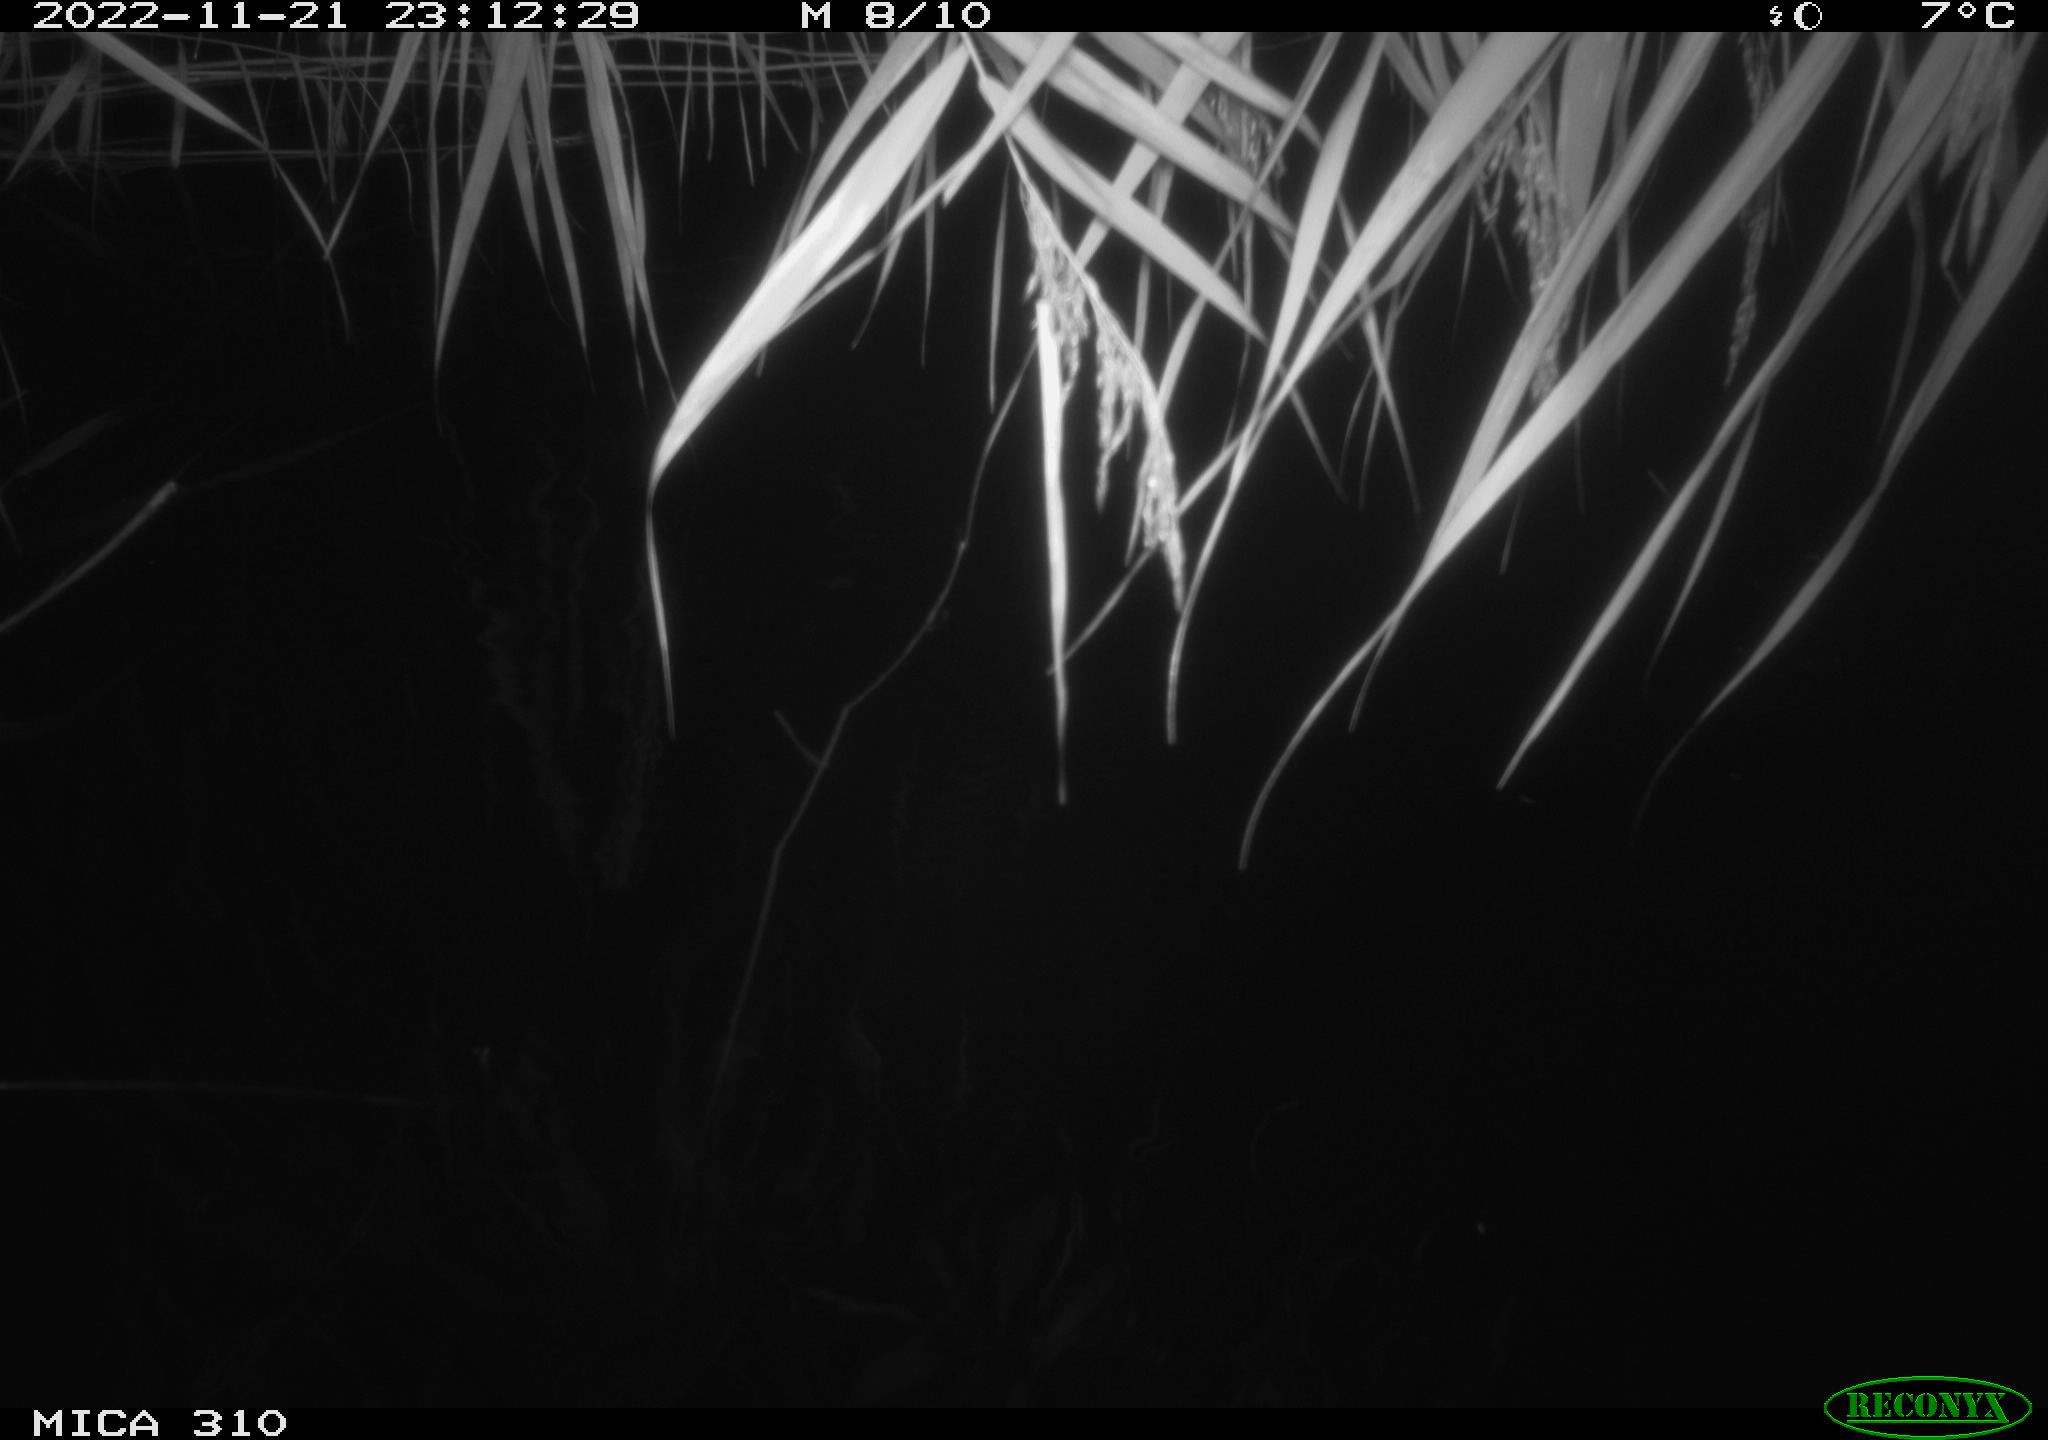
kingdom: Animalia
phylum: Chordata
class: Mammalia
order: Rodentia
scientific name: Rodentia
